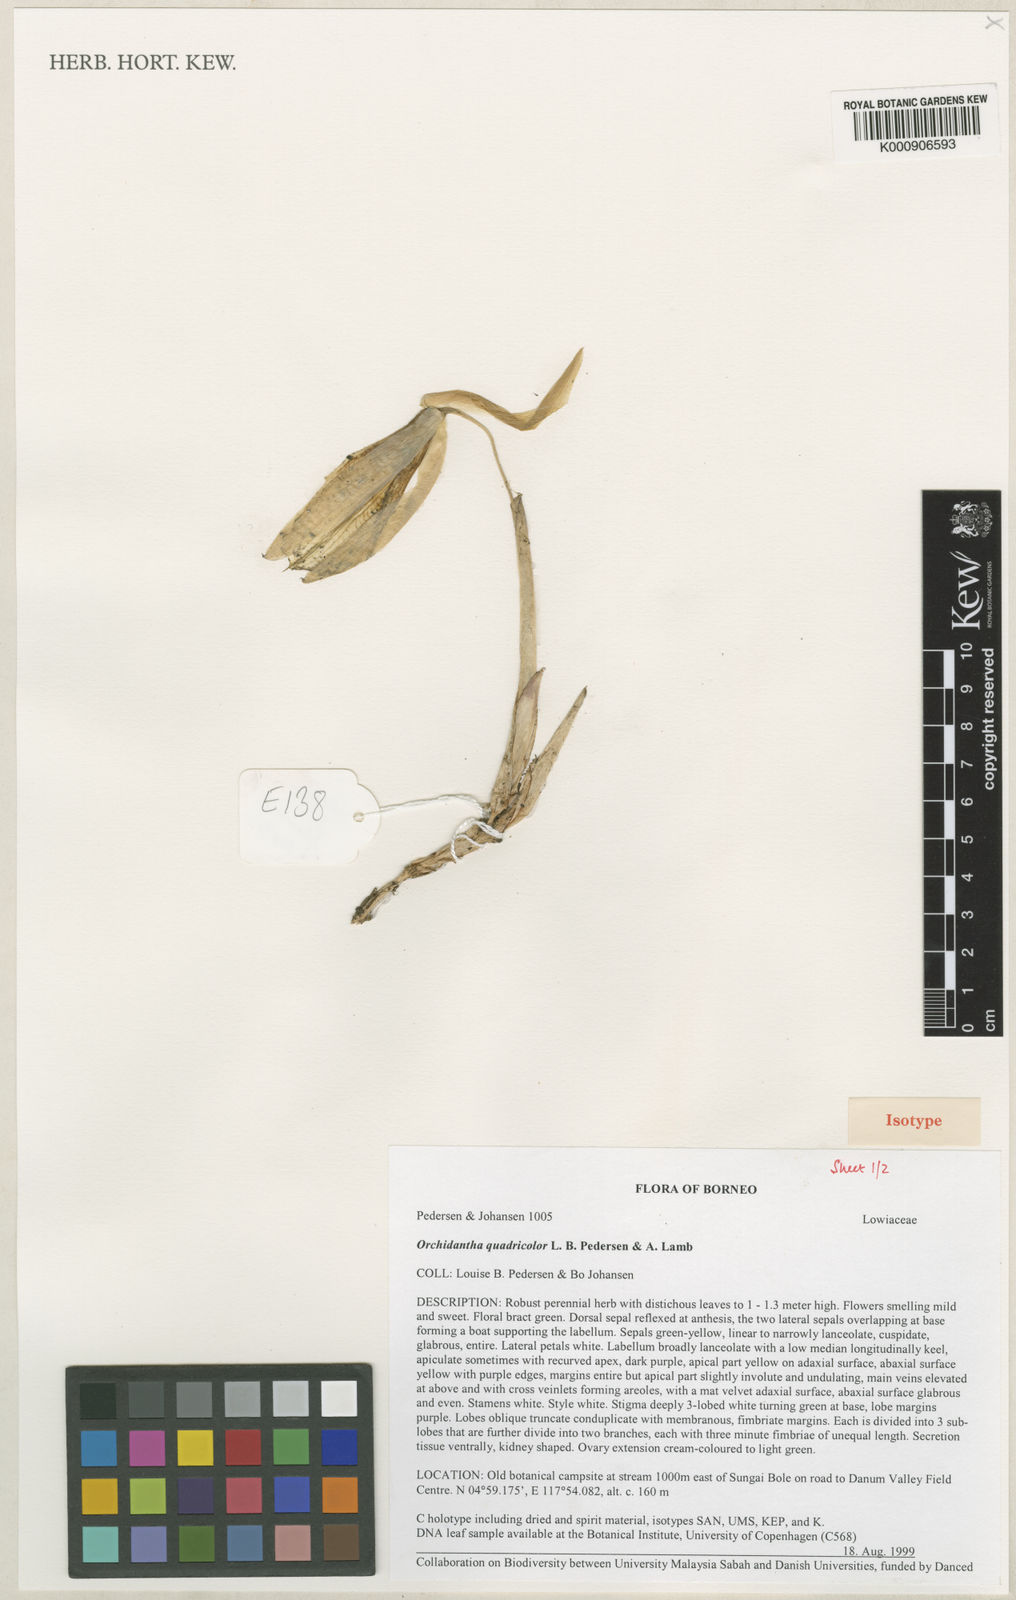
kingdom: Plantae
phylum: Tracheophyta
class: Liliopsida
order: Zingiberales
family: Lowiaceae
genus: Orchidantha
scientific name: Orchidantha quadricolor
